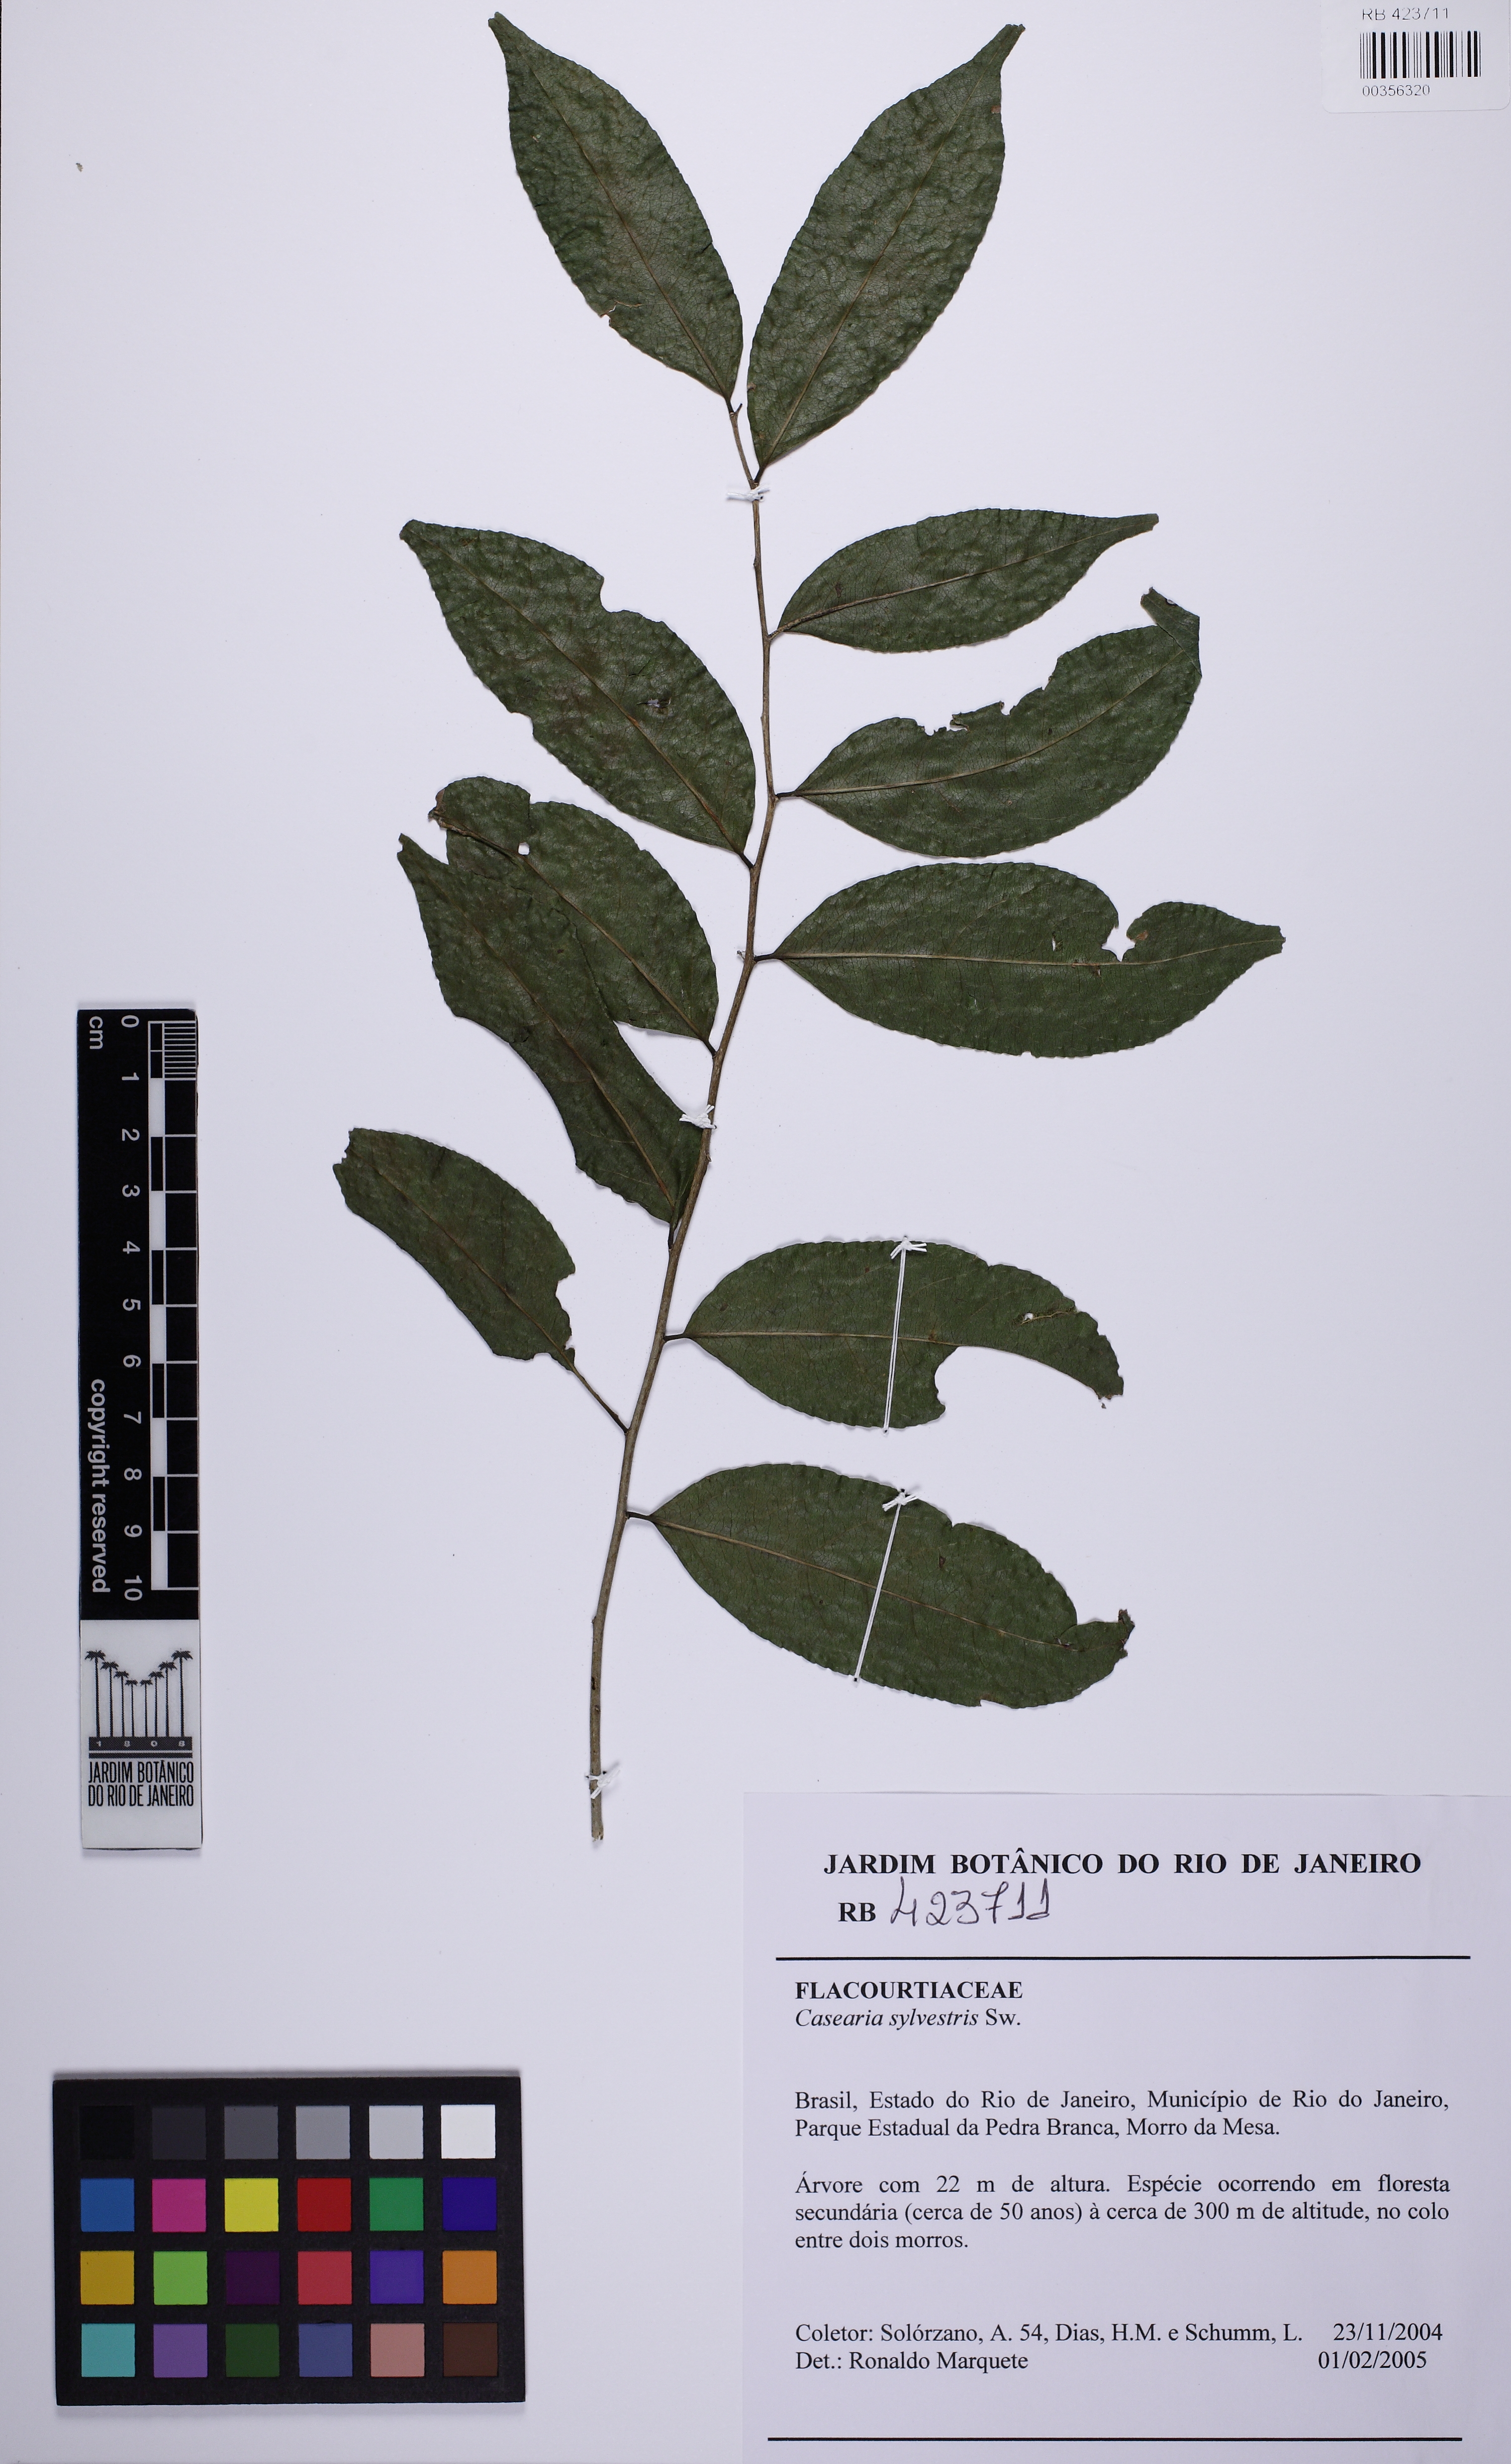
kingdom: Plantae
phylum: Tracheophyta
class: Magnoliopsida
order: Malpighiales
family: Salicaceae
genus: Casearia
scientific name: Casearia sylvestris
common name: Wild sage
